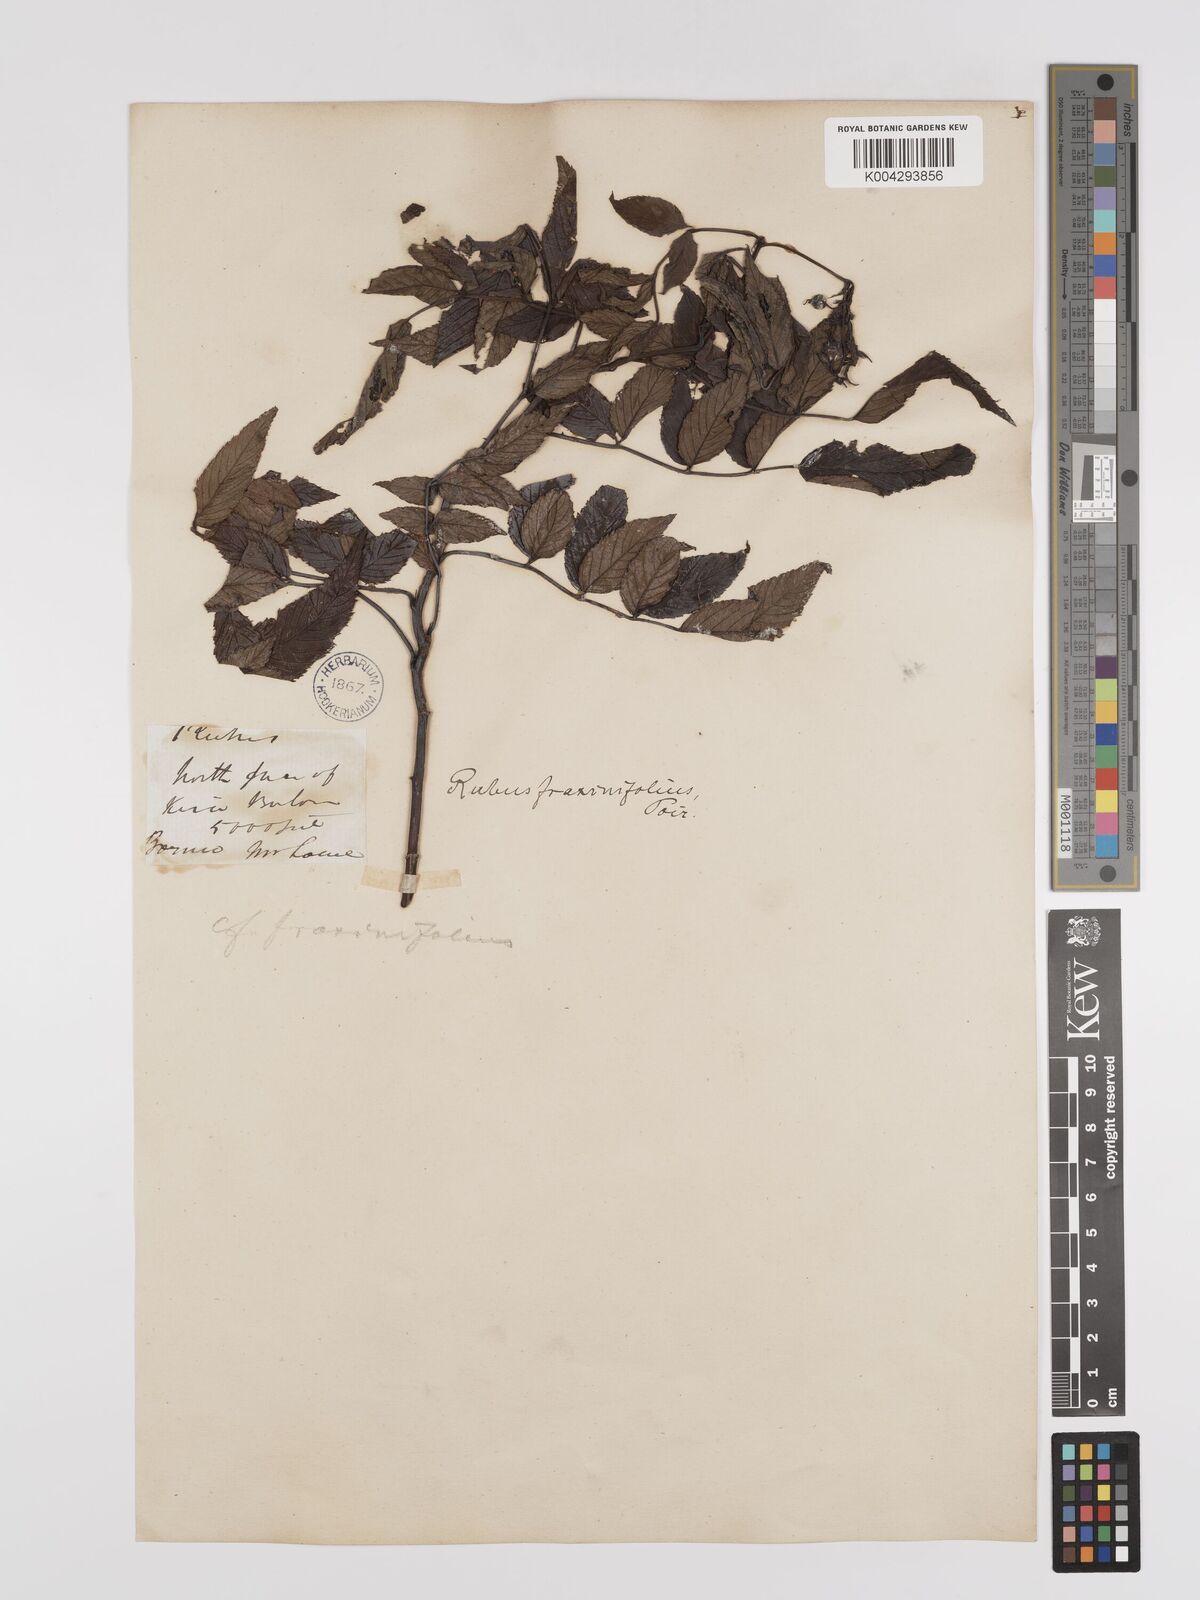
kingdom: Plantae
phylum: Tracheophyta
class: Magnoliopsida
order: Rosales
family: Rosaceae
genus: Rubus
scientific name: Rubus fraxinifolius
